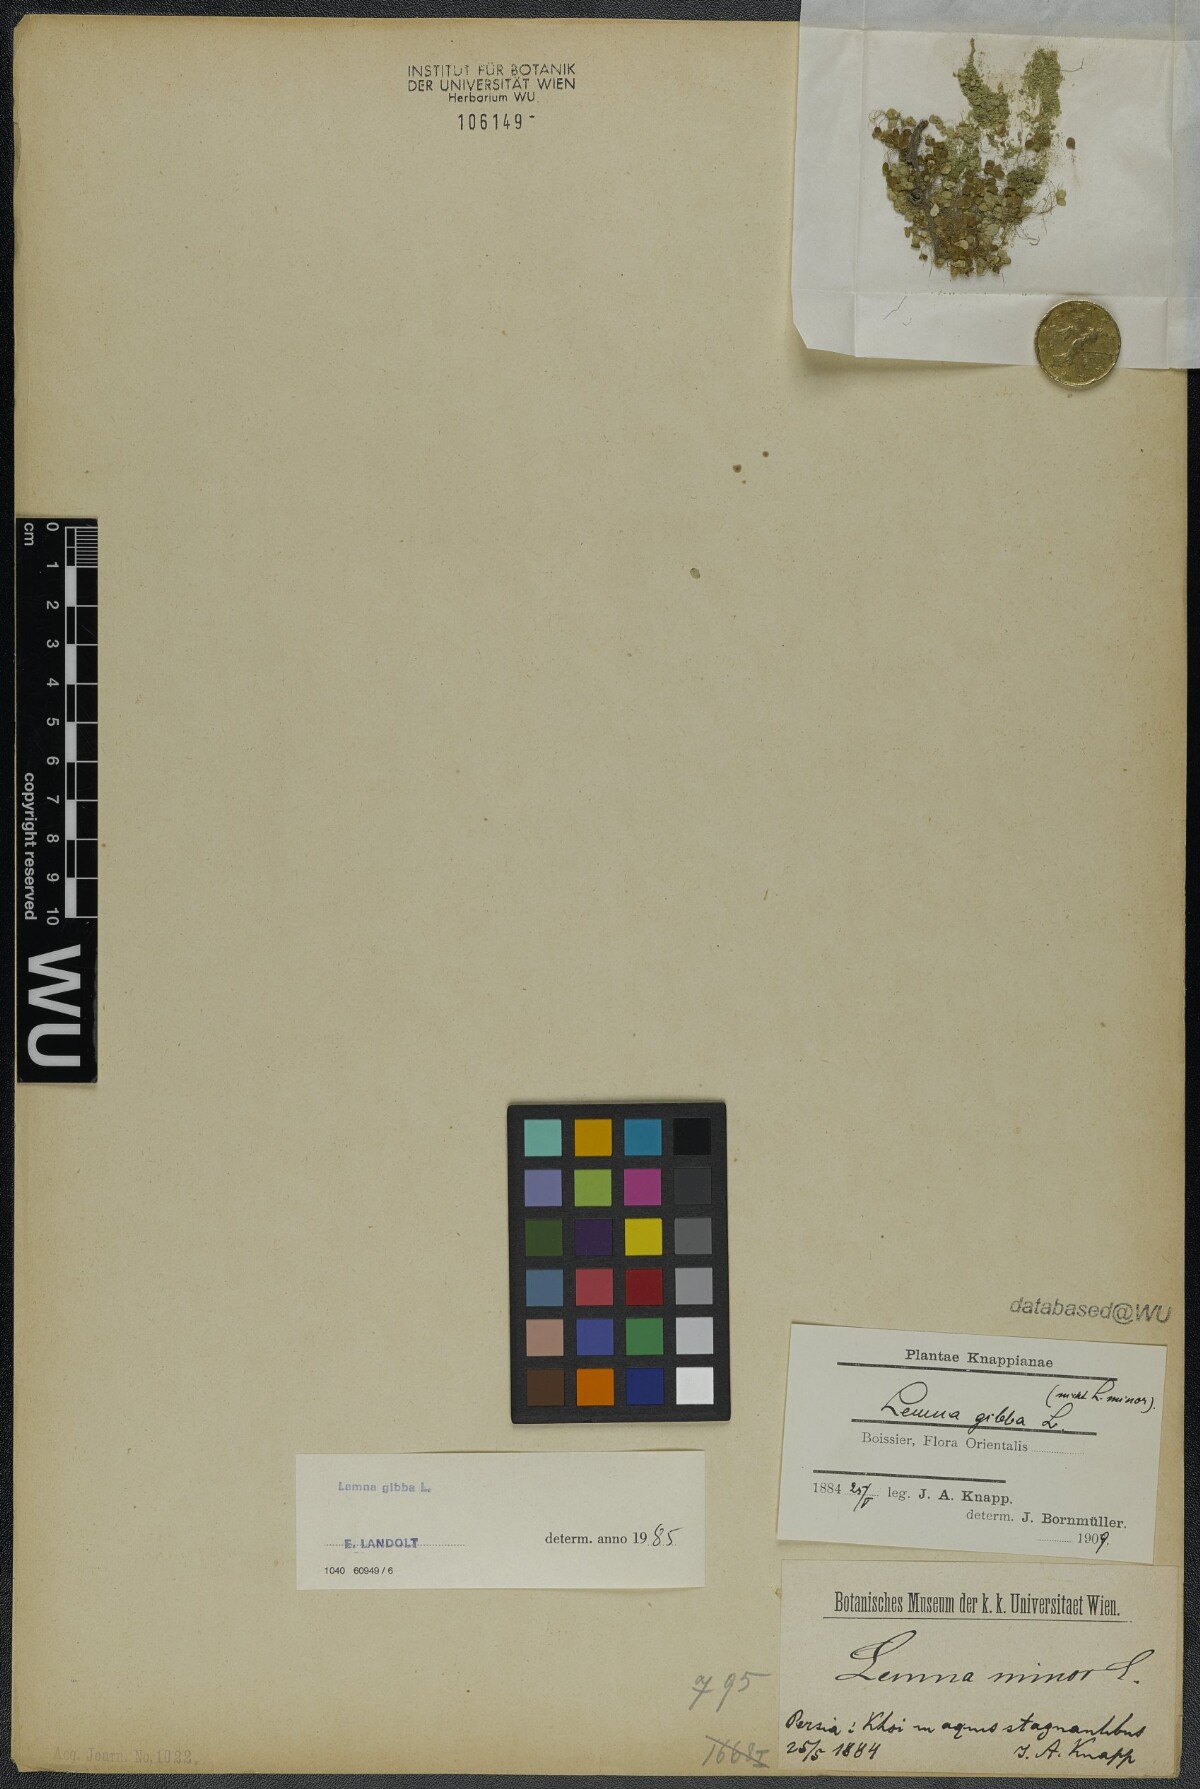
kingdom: Plantae
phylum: Tracheophyta
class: Liliopsida
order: Alismatales
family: Araceae
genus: Lemna
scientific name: Lemna gibba
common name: Fat duckweed
